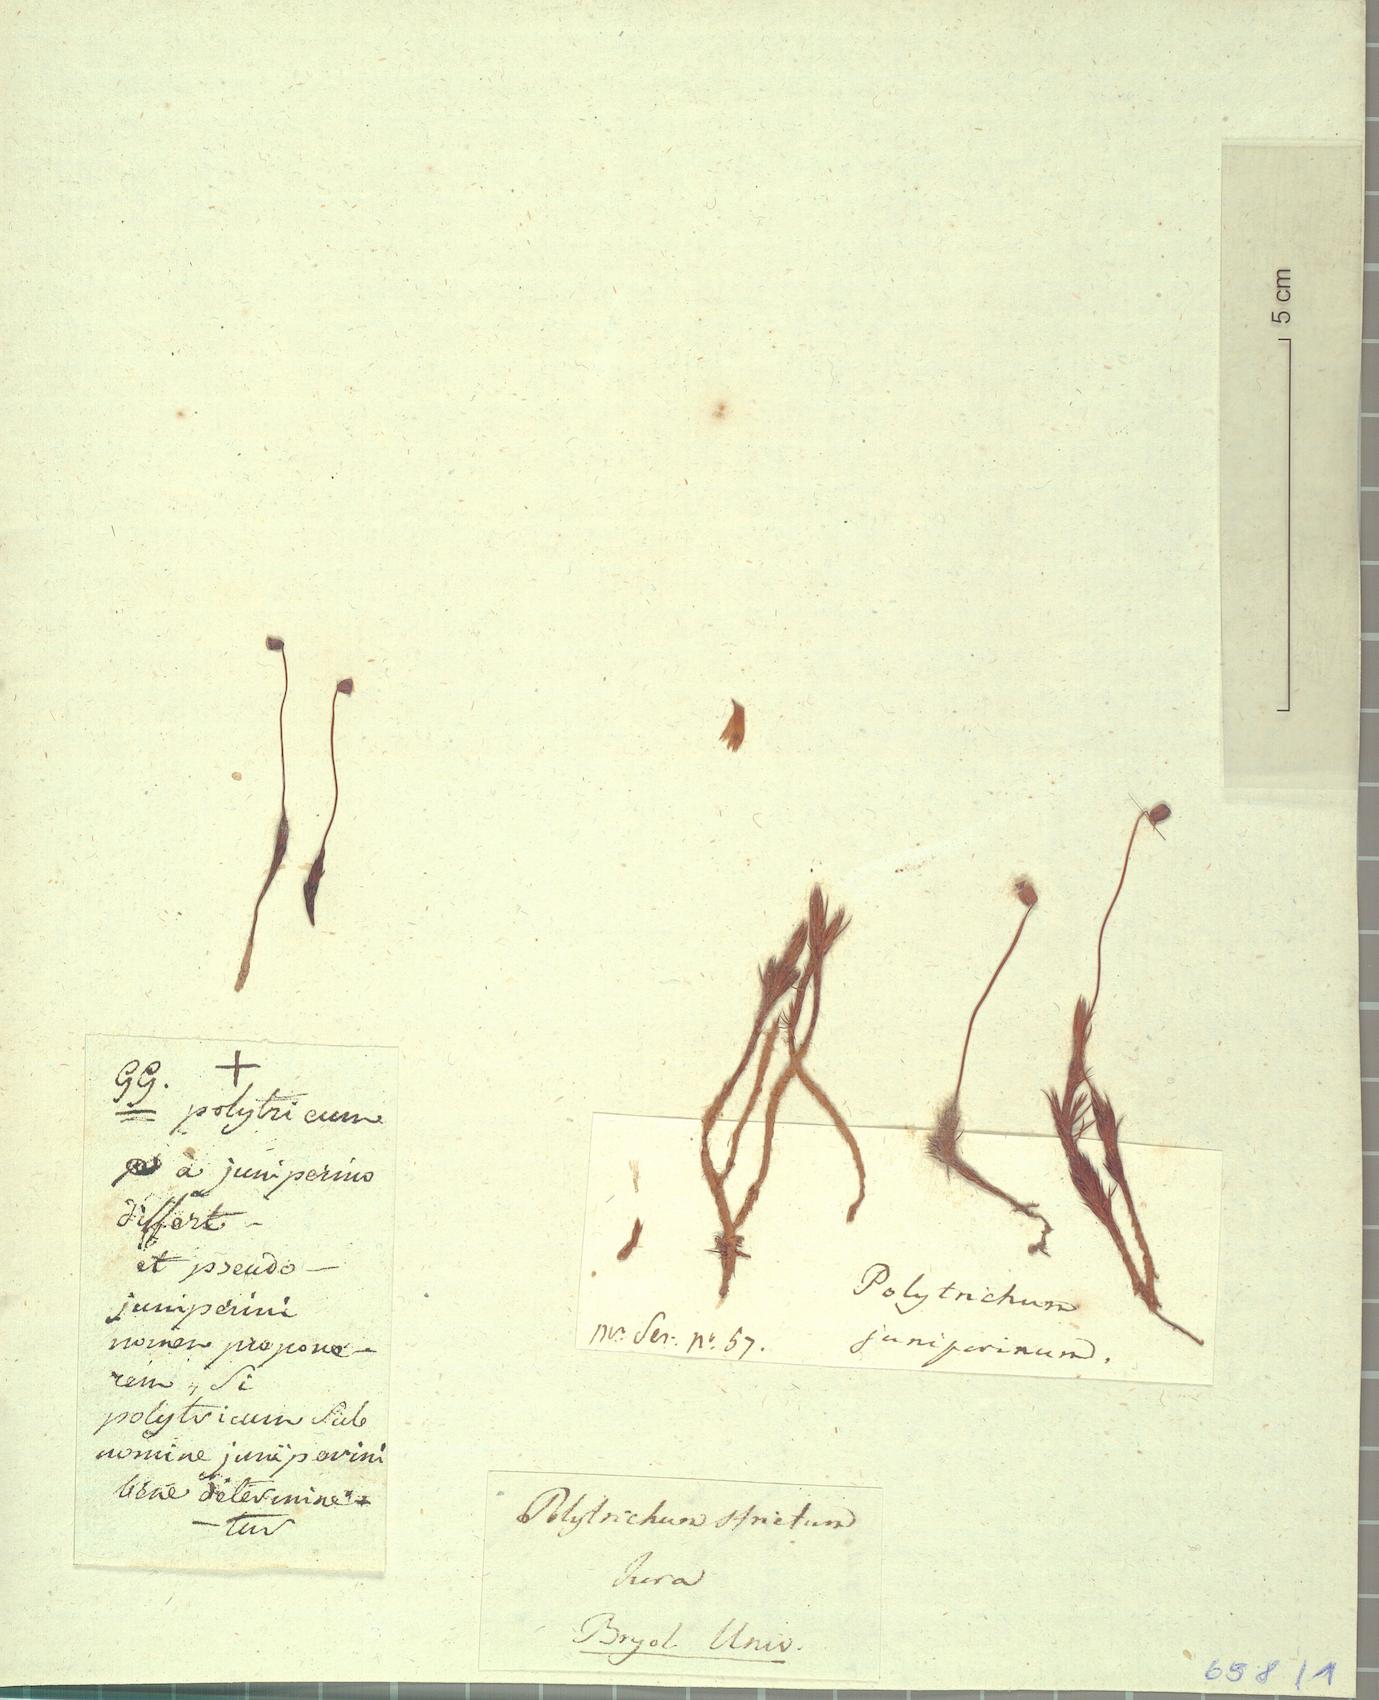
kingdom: Plantae
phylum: Bryophyta
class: Polytrichopsida
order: Polytrichales
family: Polytrichaceae
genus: Polytrichum
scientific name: Polytrichum strictum
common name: Bog haircap moss
